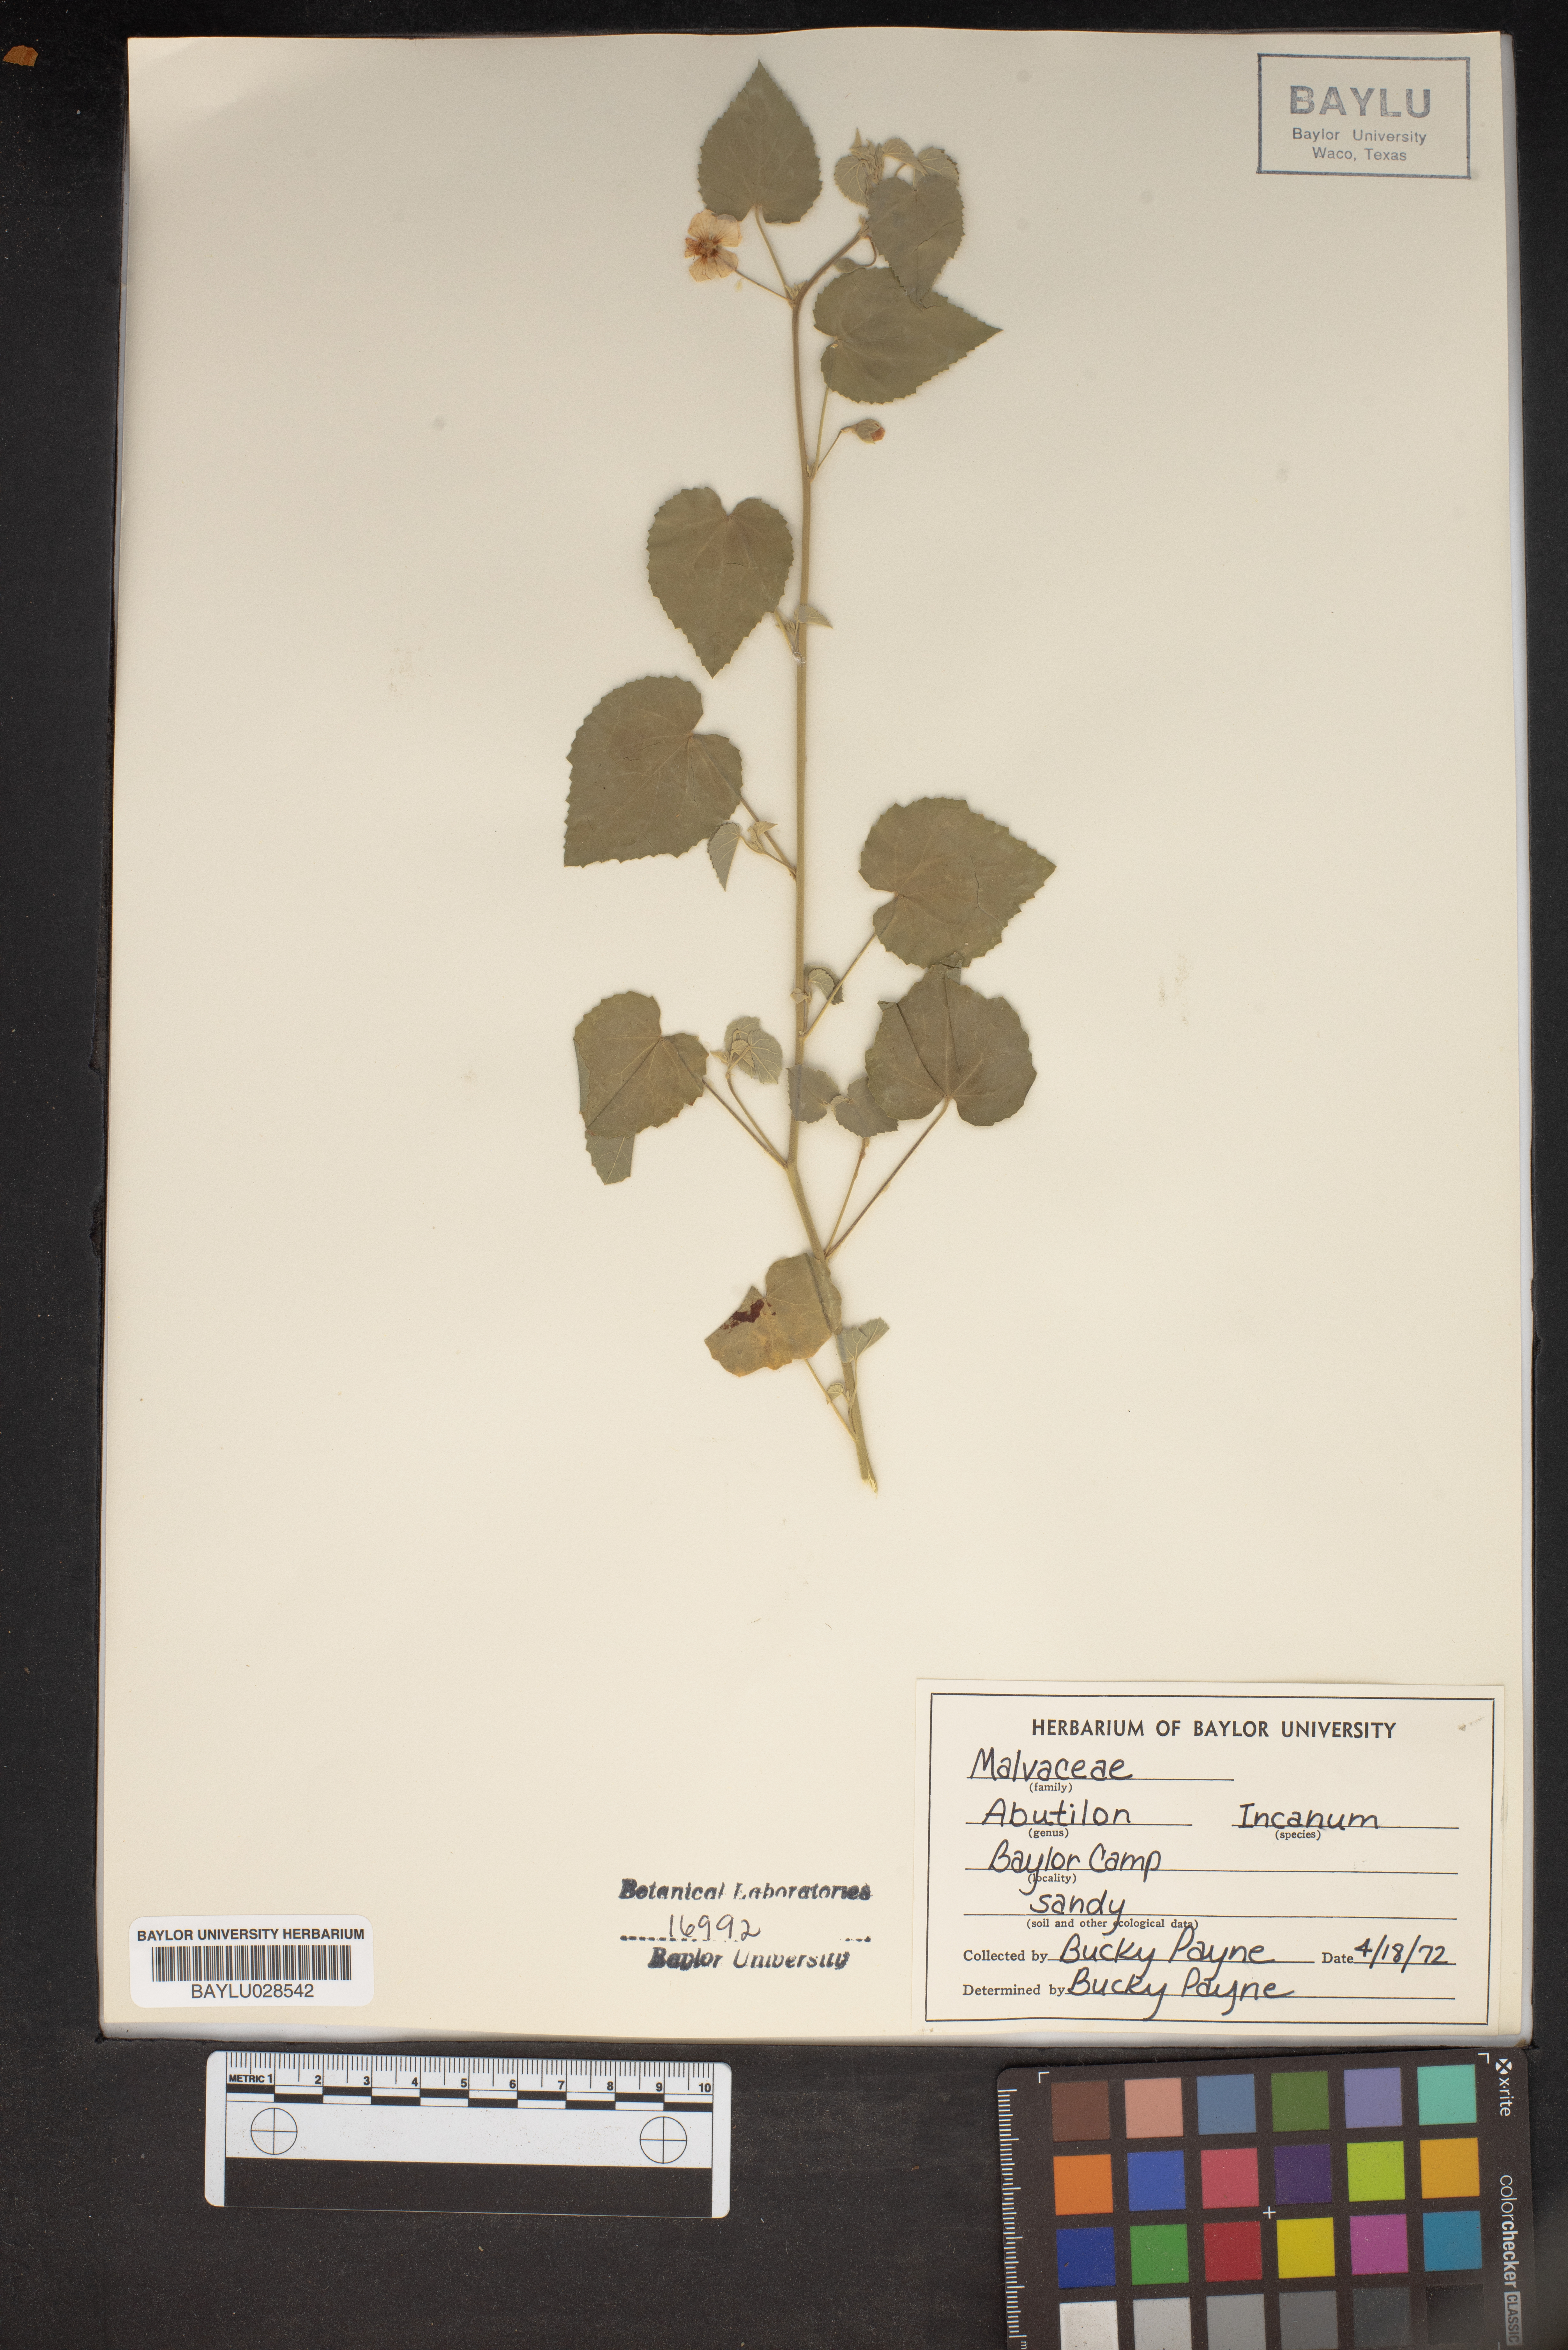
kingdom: Plantae
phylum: Tracheophyta
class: Magnoliopsida
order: Malvales
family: Malvaceae
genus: Abutilon
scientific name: Abutilon incanum
